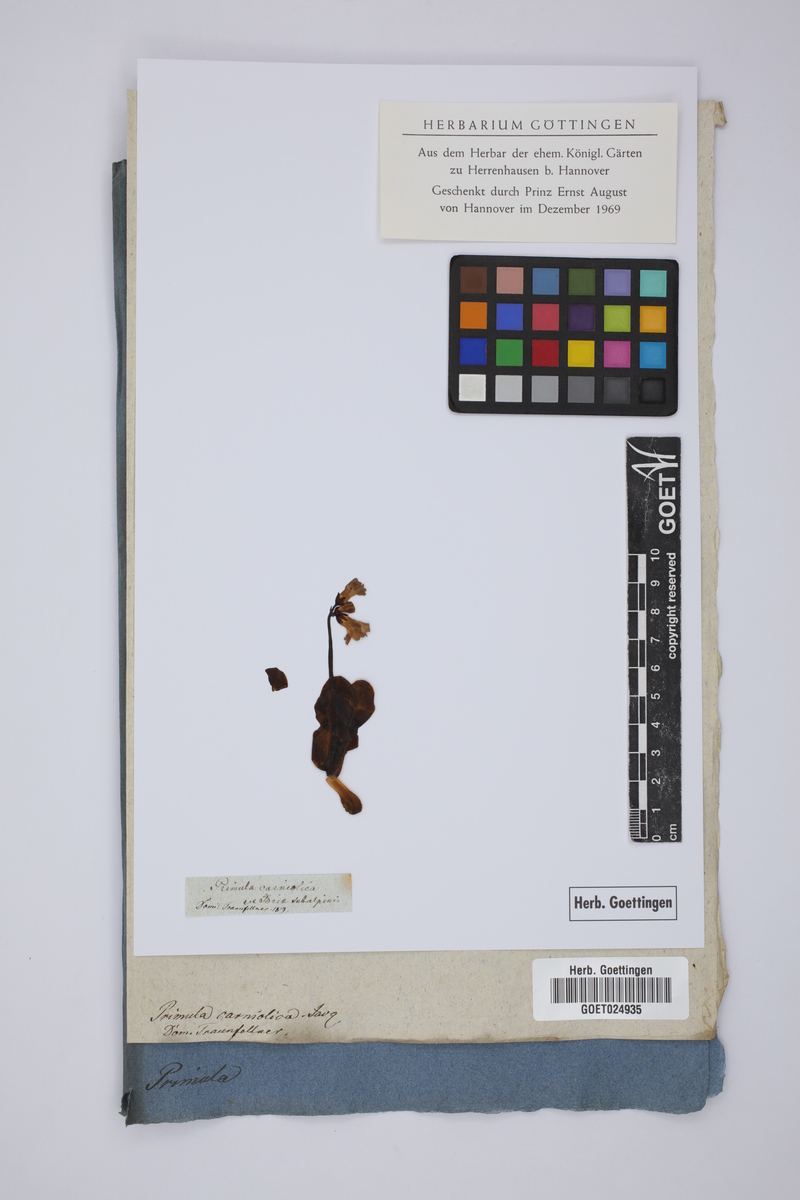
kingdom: Plantae
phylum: Tracheophyta
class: Magnoliopsida
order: Ericales
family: Primulaceae
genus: Primula
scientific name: Primula carniolica
